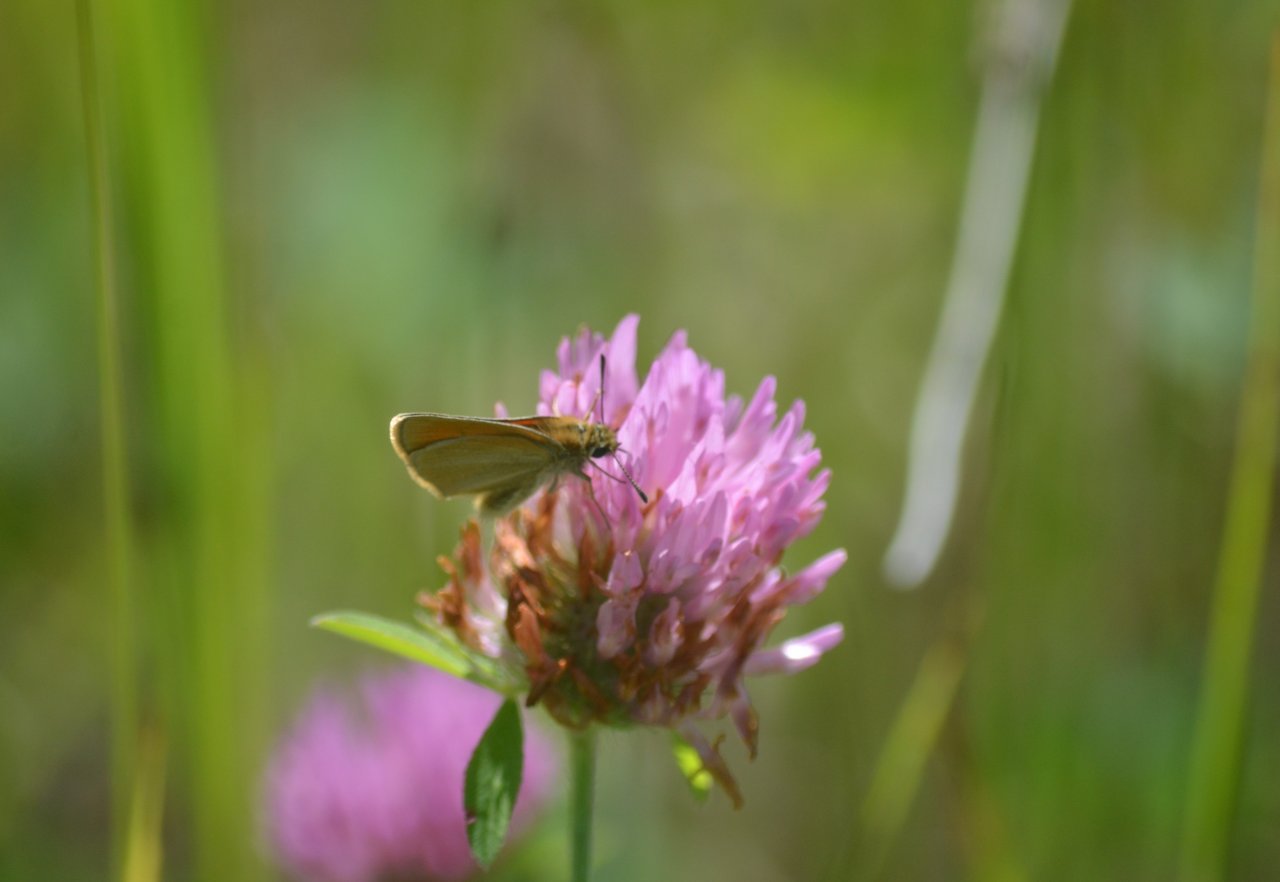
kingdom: Animalia
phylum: Arthropoda
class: Insecta
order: Lepidoptera
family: Hesperiidae
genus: Thymelicus
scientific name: Thymelicus lineola
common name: European Skipper
